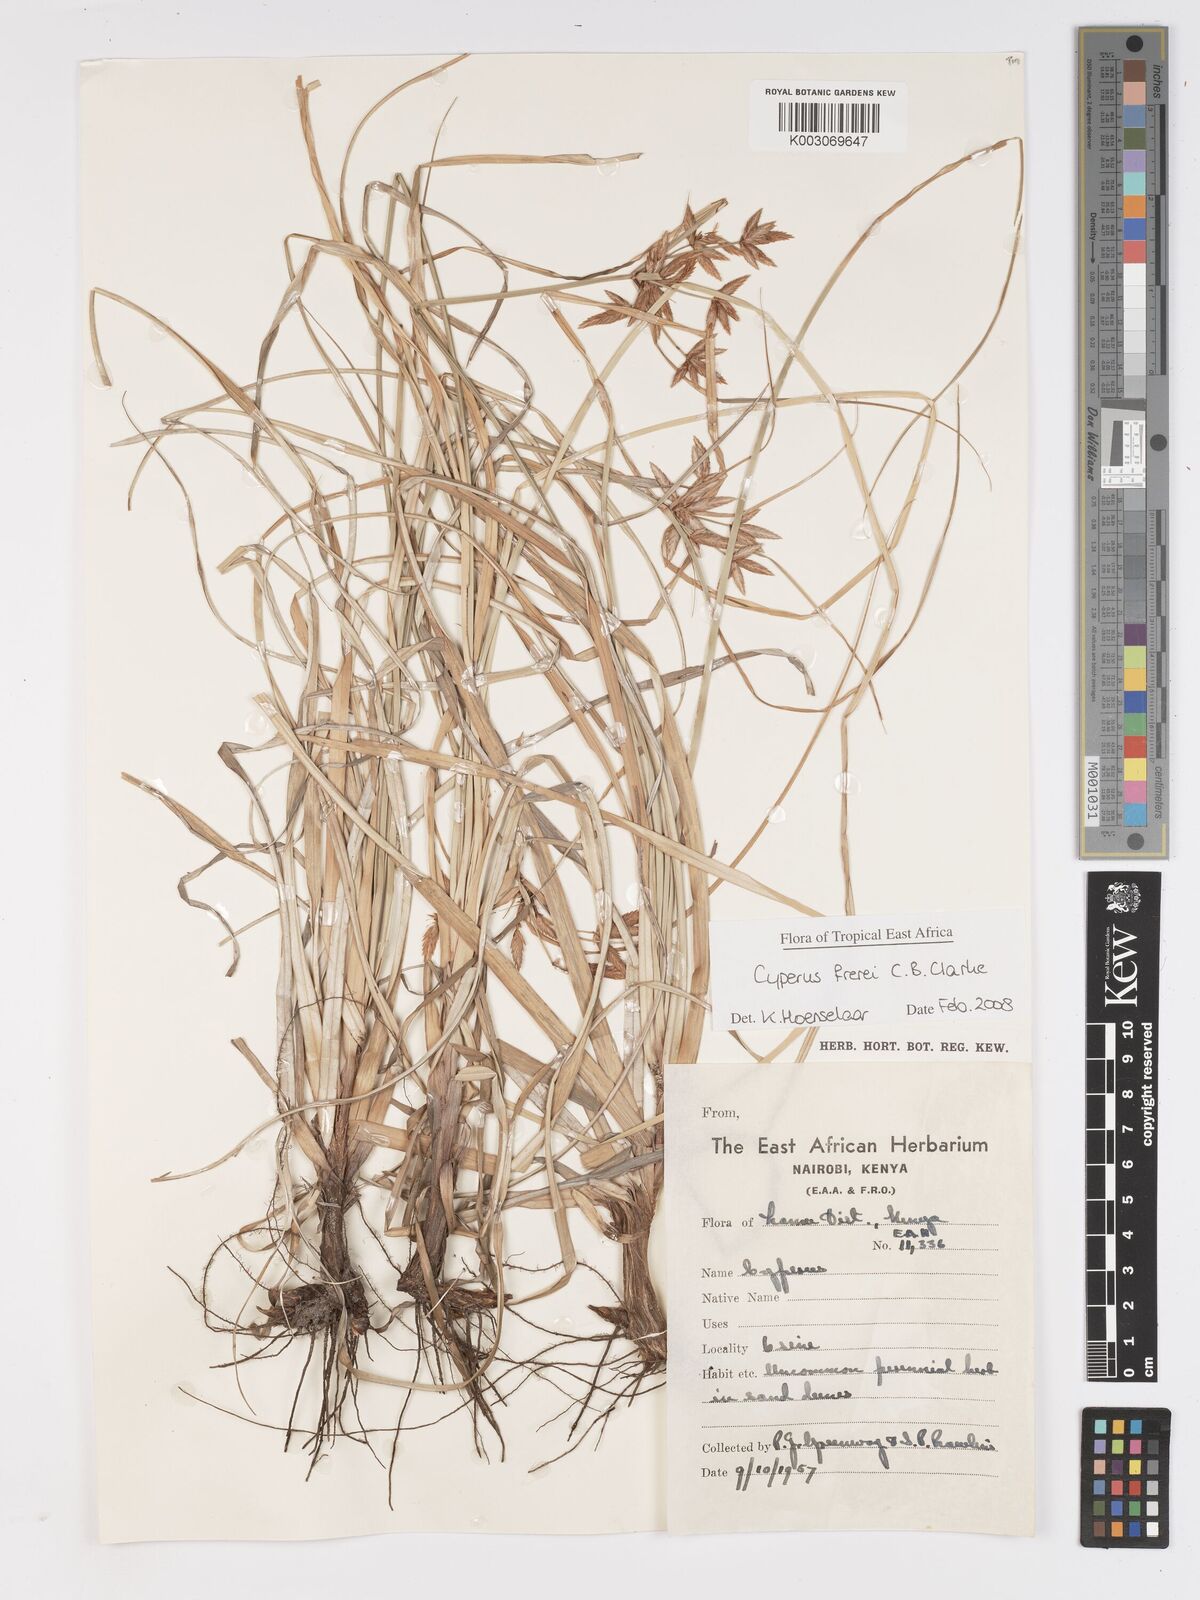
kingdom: Plantae
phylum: Tracheophyta
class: Liliopsida
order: Poales
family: Cyperaceae
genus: Cyperus
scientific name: Cyperus crassipes
